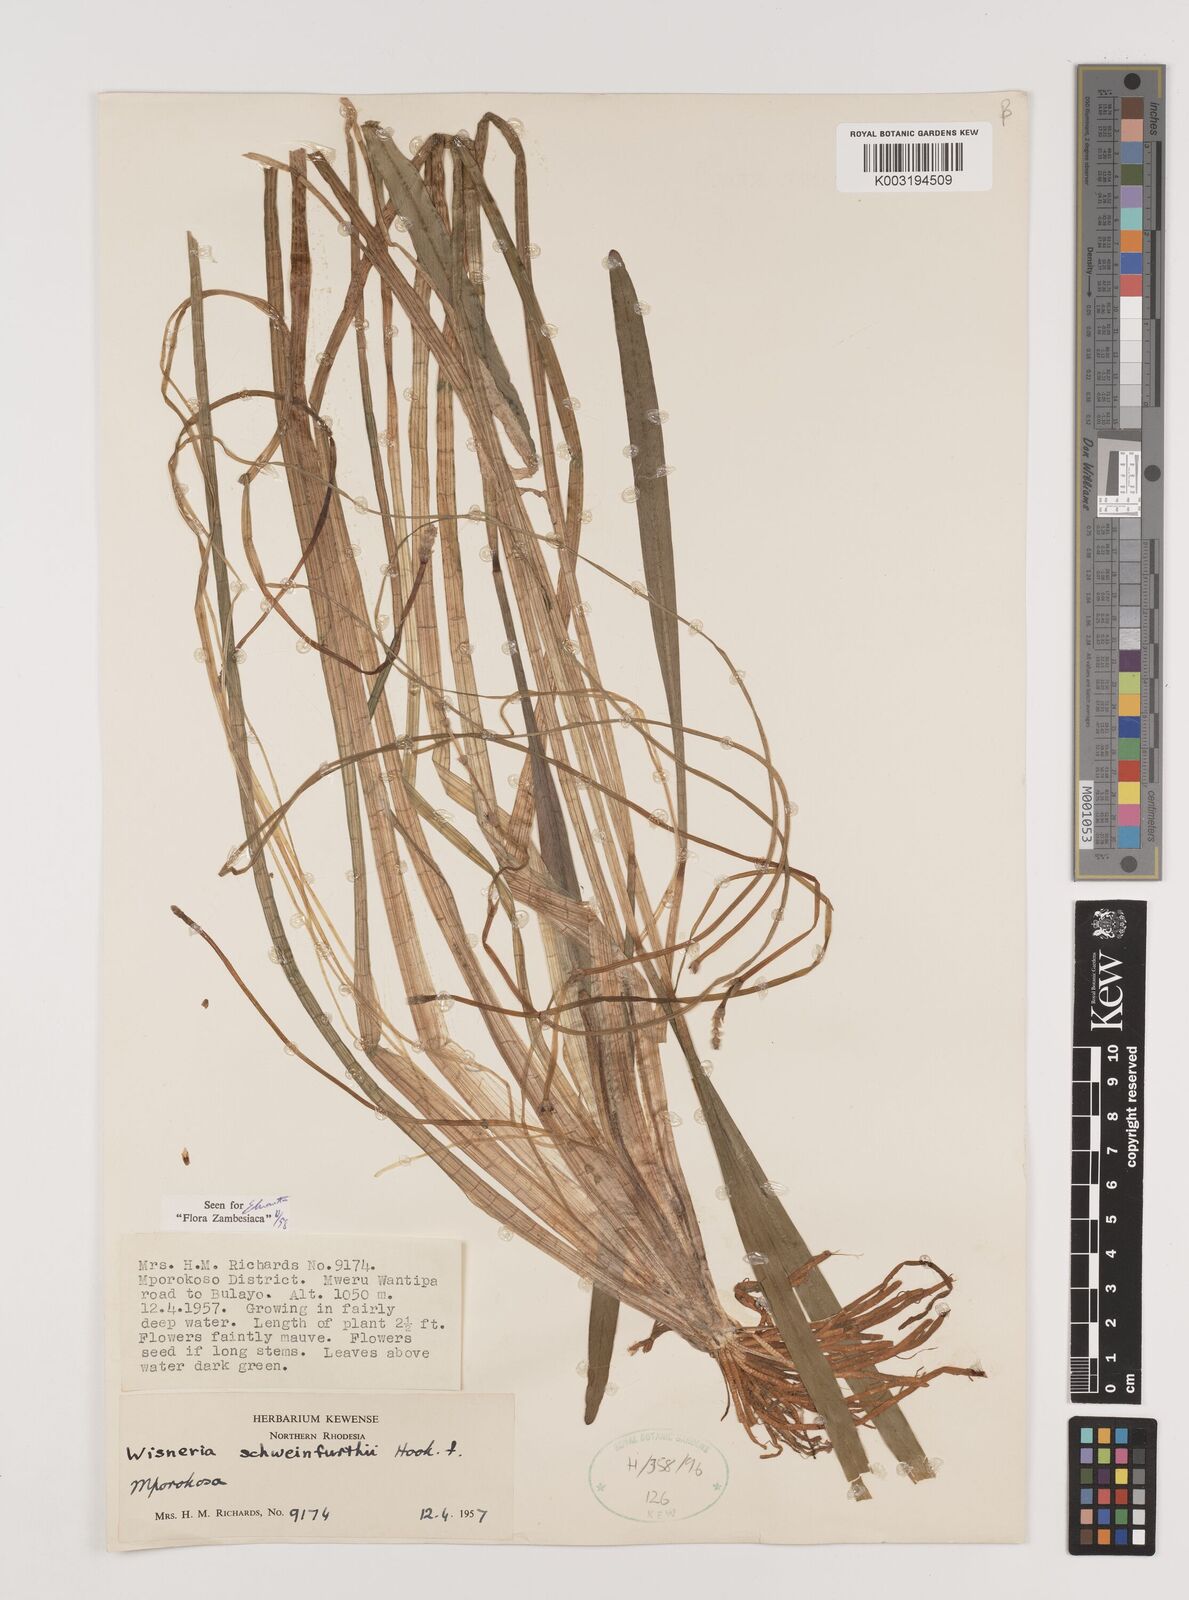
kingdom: Plantae
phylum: Tracheophyta
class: Liliopsida
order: Alismatales
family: Alismataceae
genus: Wiesneria
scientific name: Wiesneria schweinfurthii
